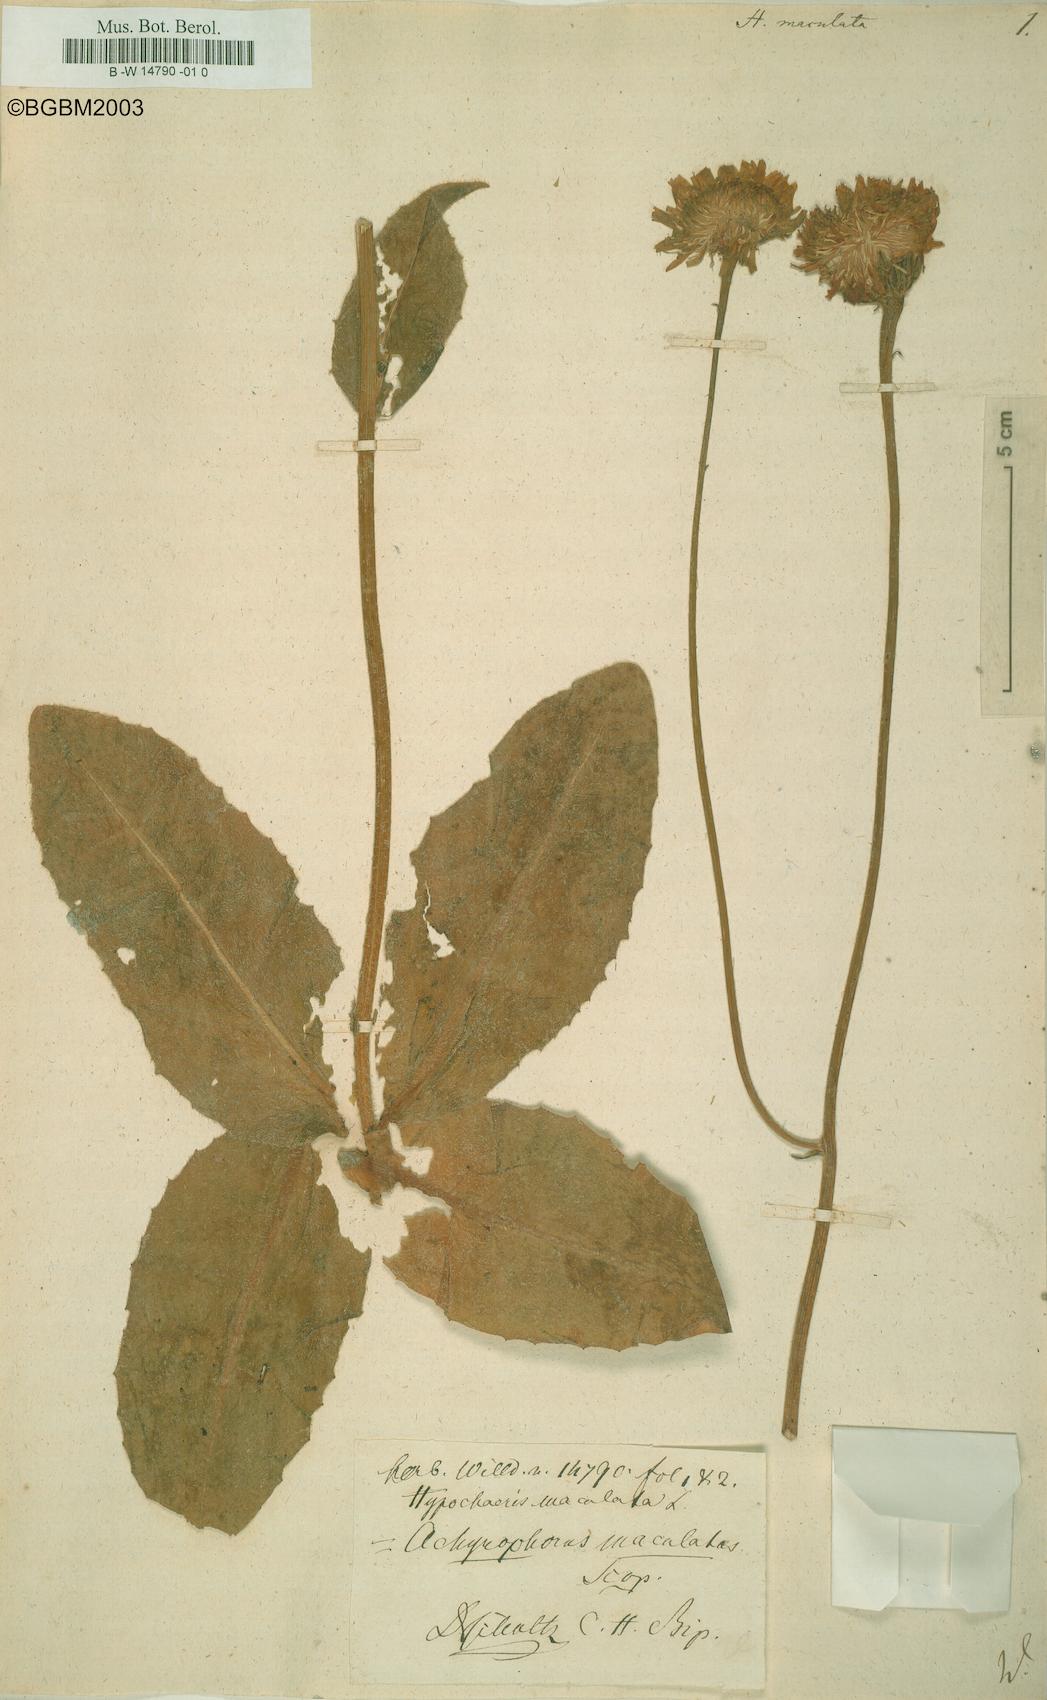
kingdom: Plantae
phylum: Tracheophyta
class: Magnoliopsida
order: Asterales
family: Asteraceae
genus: Trommsdorffia
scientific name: Trommsdorffia maculata
